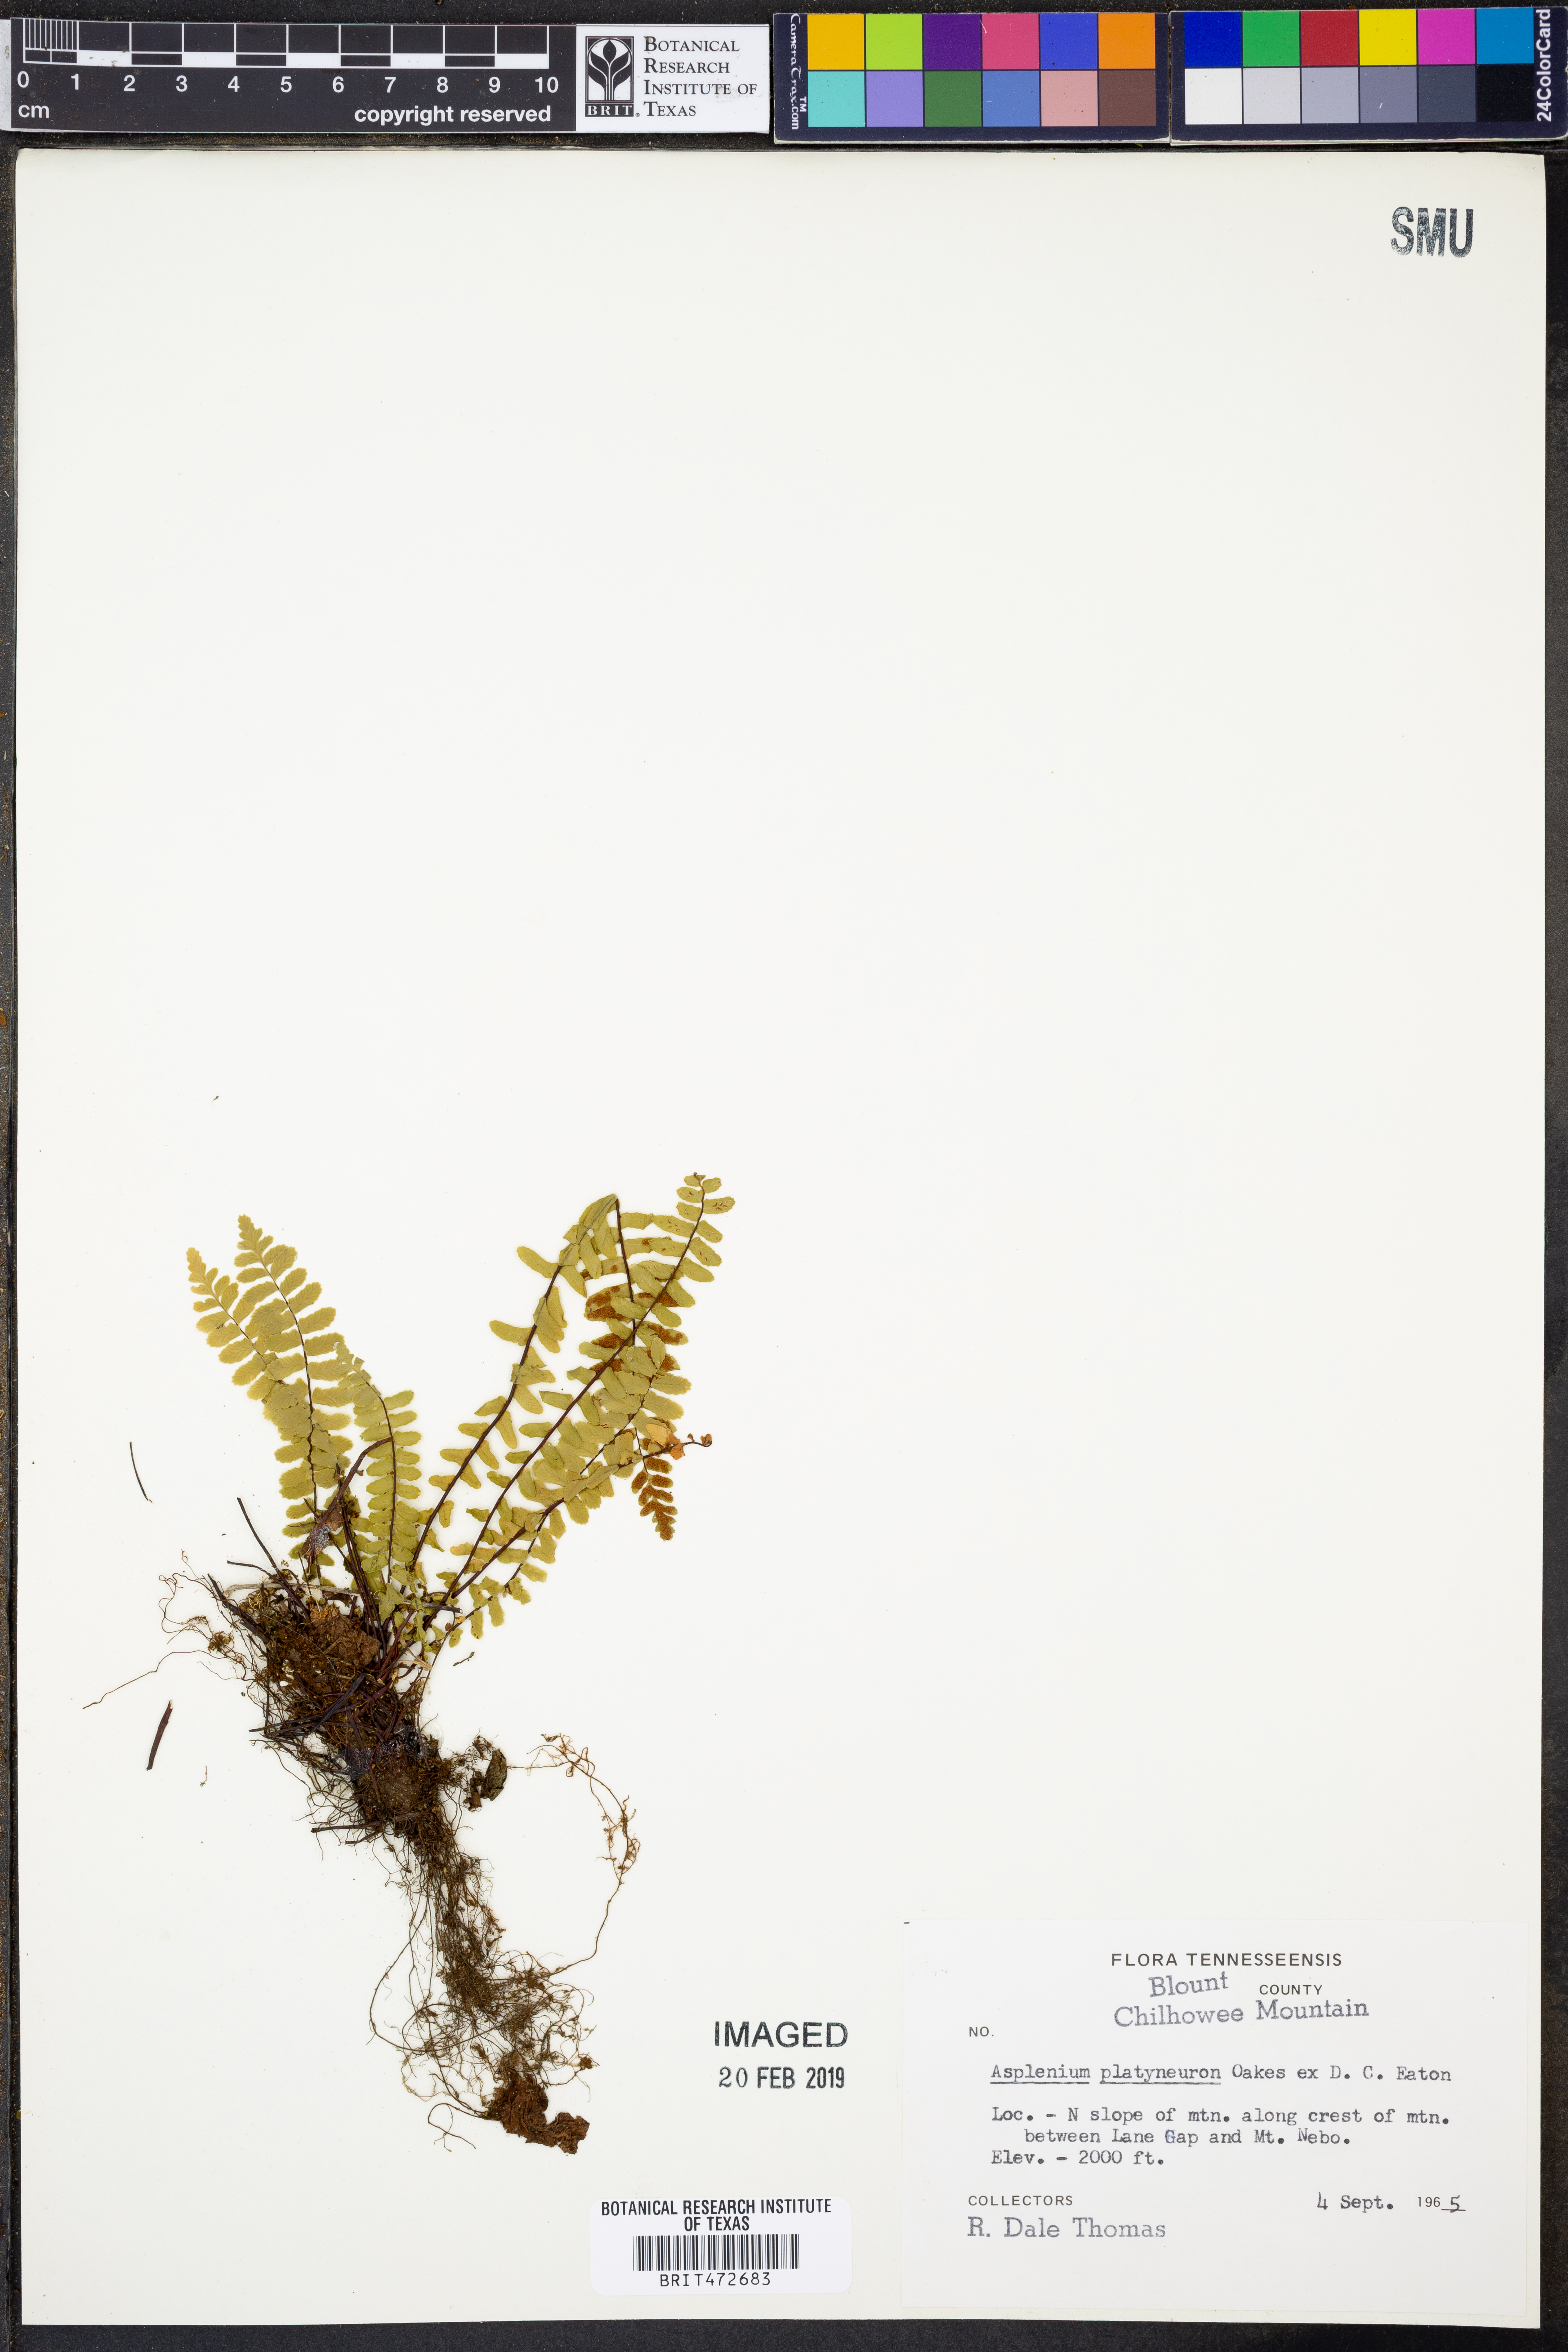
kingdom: Plantae
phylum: Tracheophyta
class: Polypodiopsida
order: Polypodiales
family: Aspleniaceae
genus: Asplenium
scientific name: Asplenium platyneuron
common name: Ebony spleenwort
